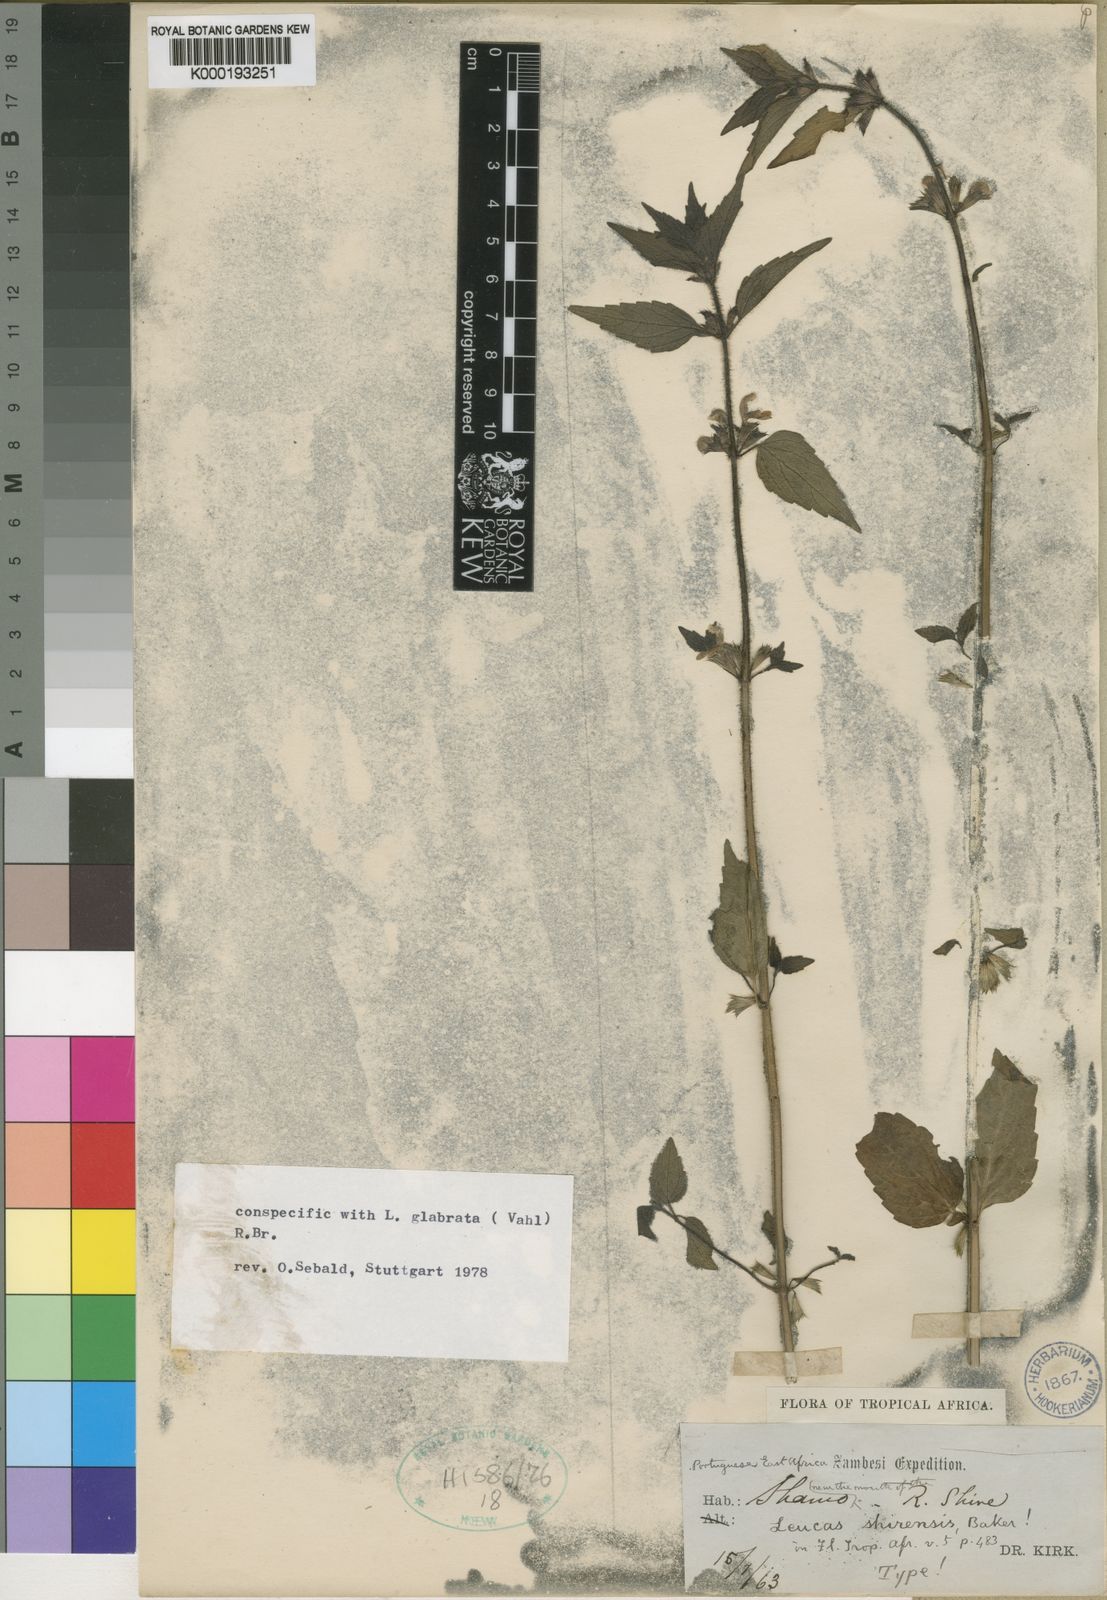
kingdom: Plantae
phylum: Tracheophyta
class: Magnoliopsida
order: Lamiales
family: Lamiaceae
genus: Leucas
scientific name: Leucas glabrata
